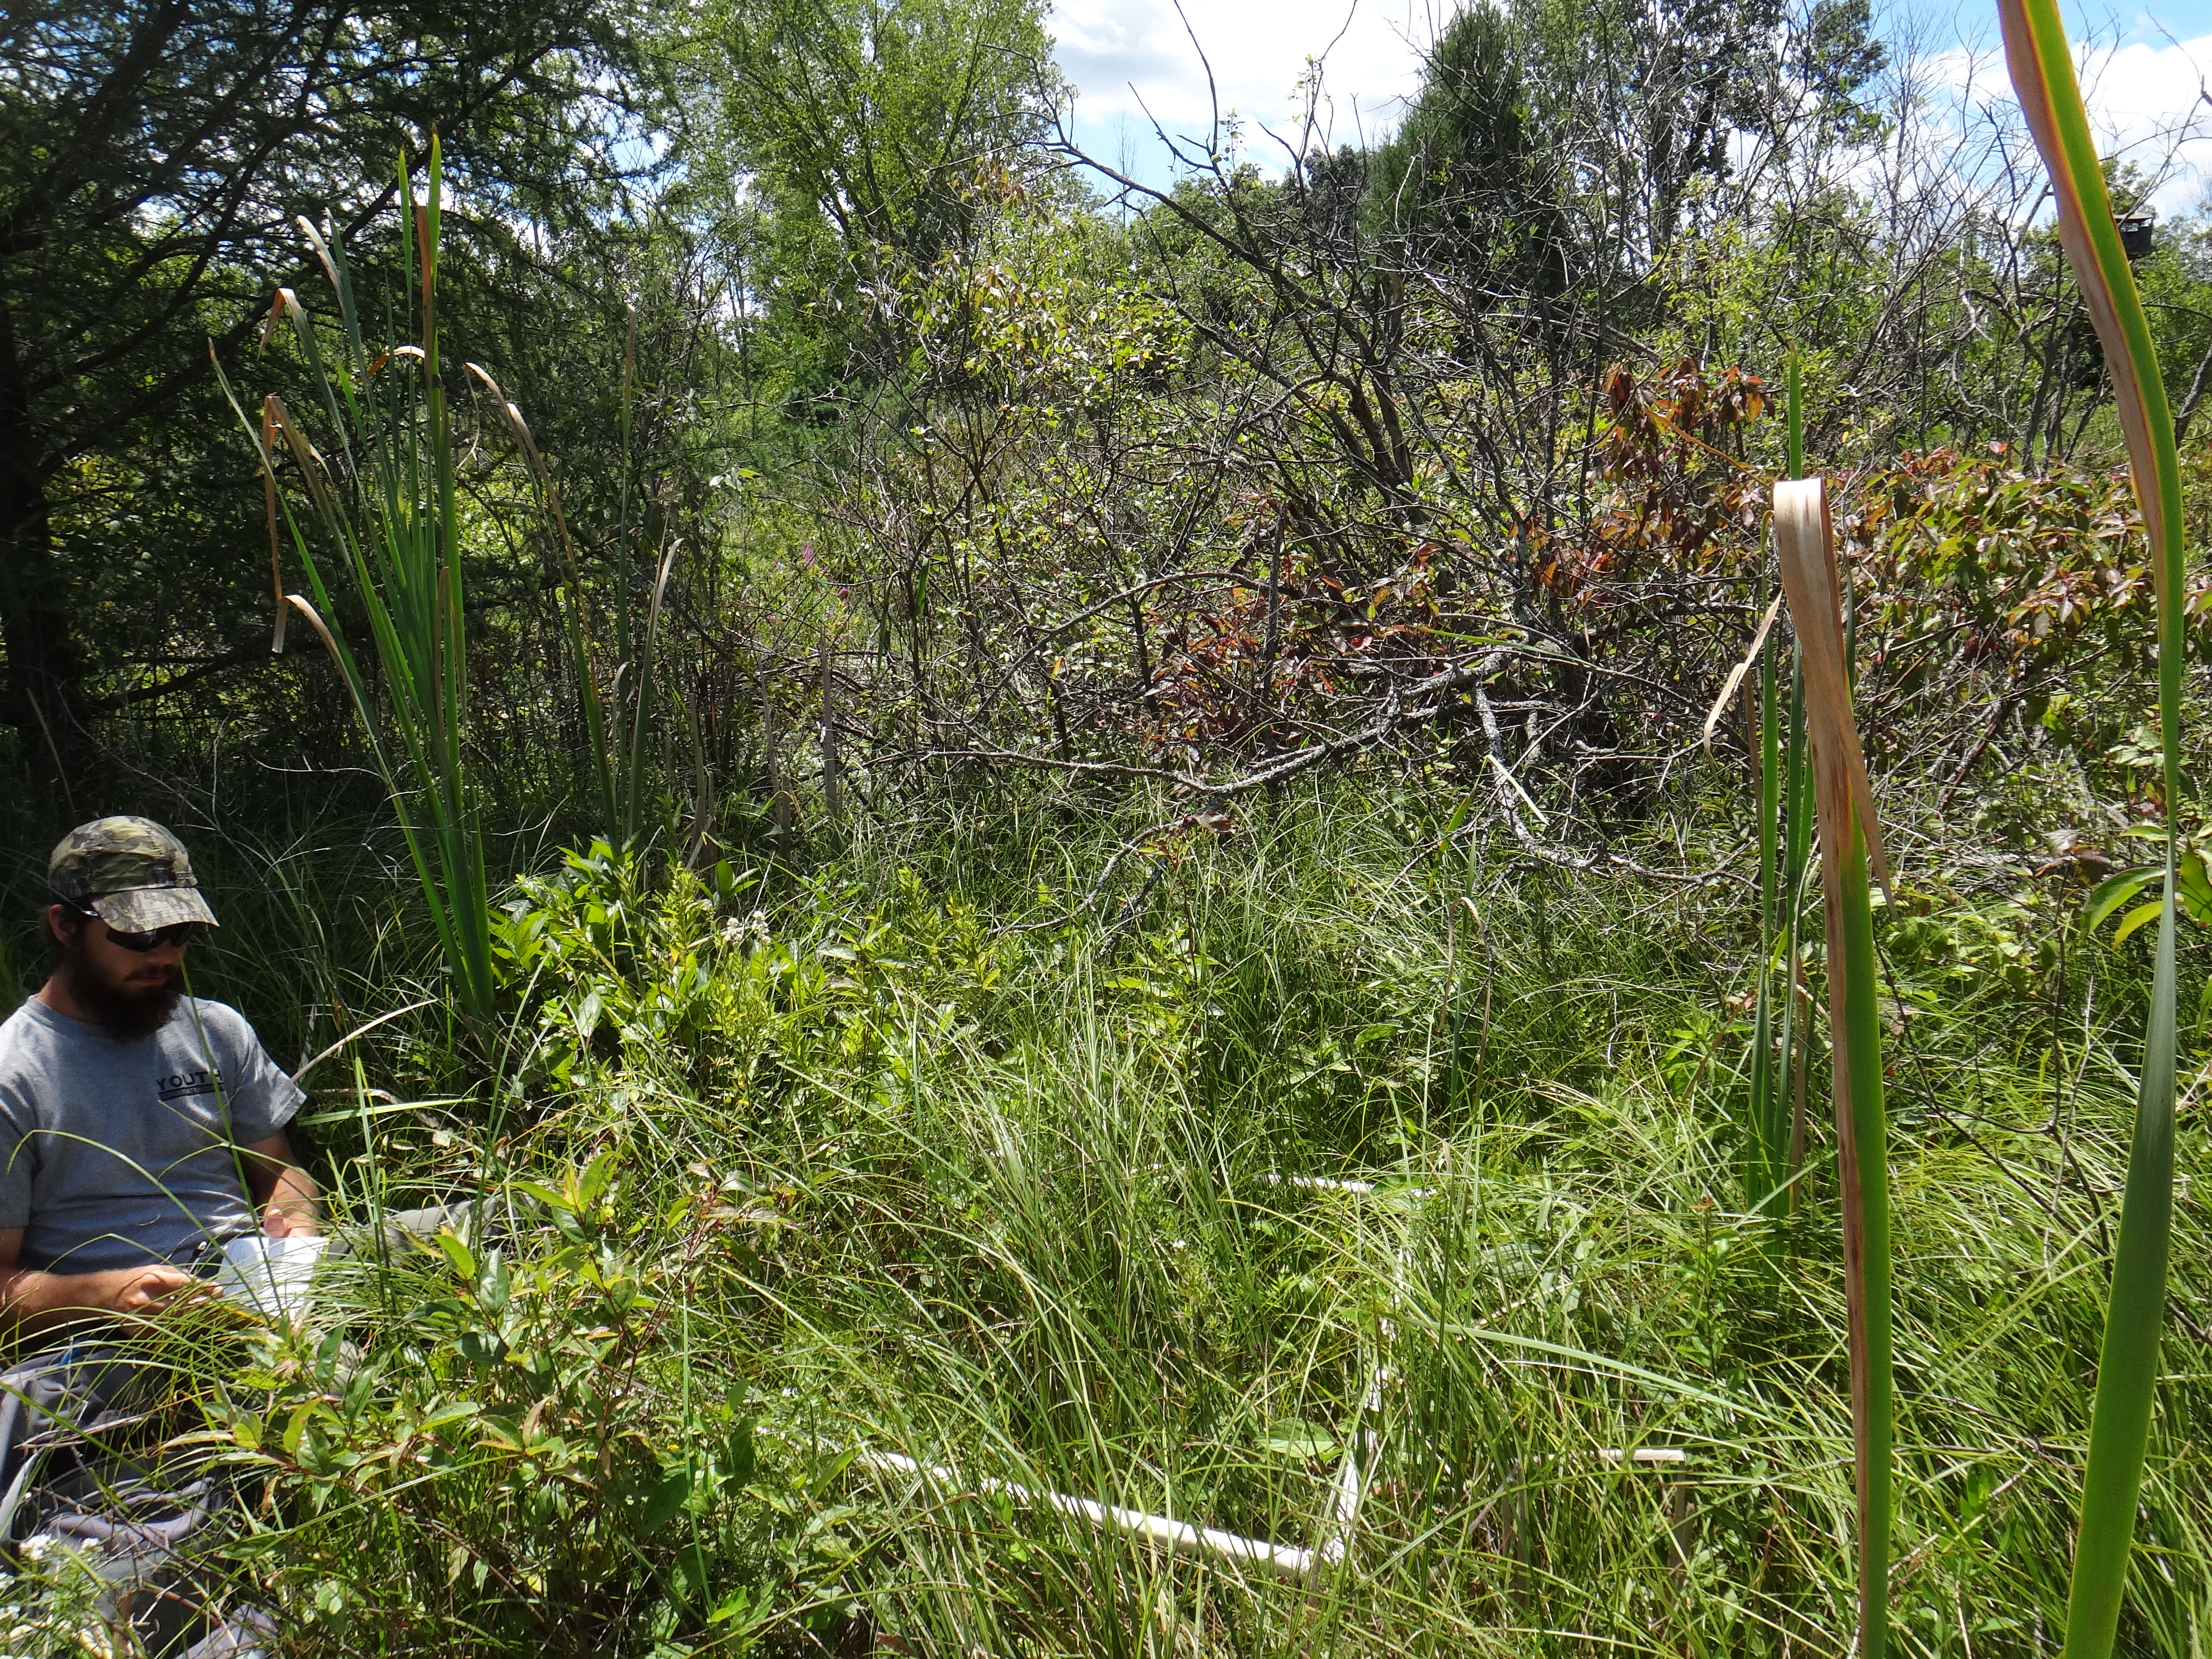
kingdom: Plantae
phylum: Tracheophyta
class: Magnoliopsida
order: Asterales
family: Asteraceae
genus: Symphyotrichum
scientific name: Symphyotrichum lanceolatum
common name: Panicled aster
